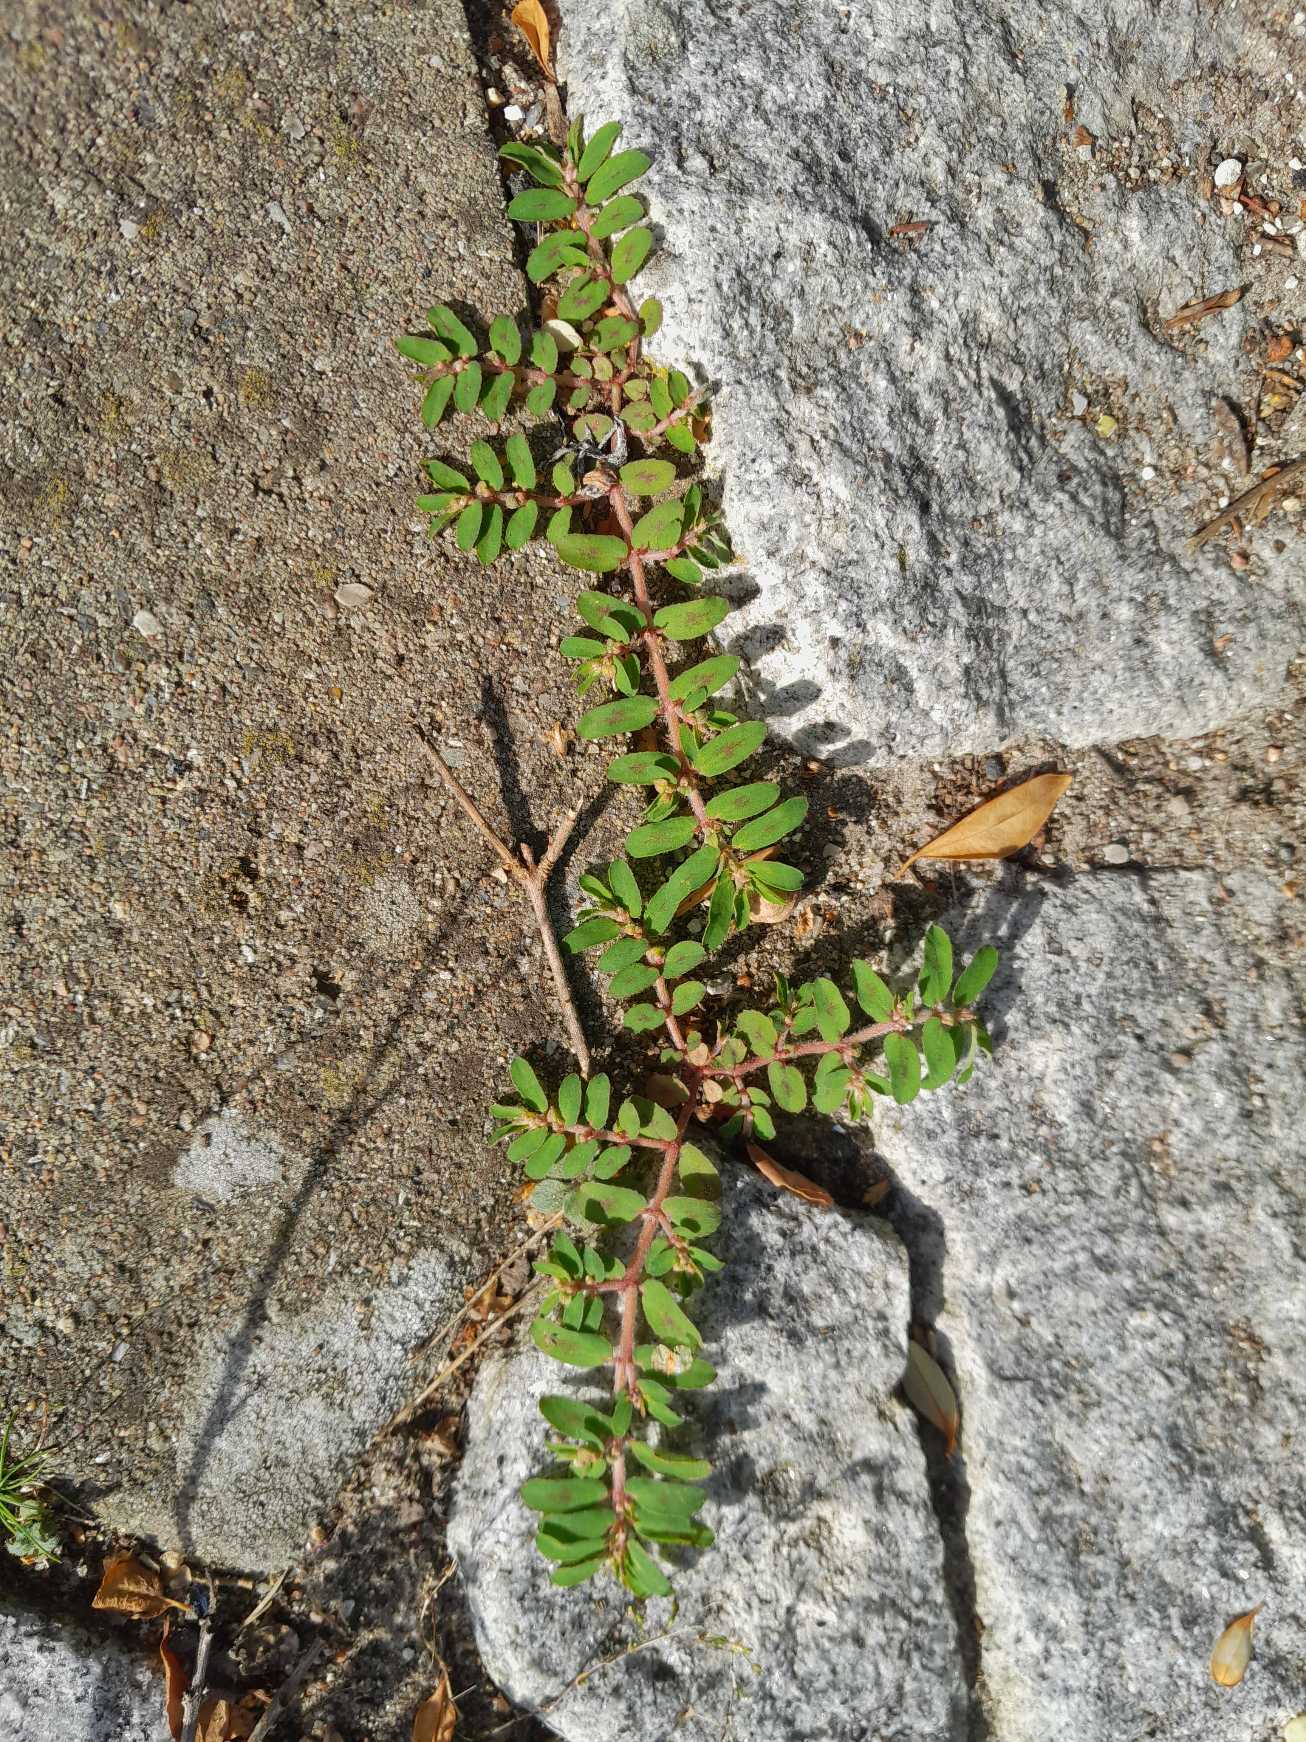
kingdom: Plantae
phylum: Tracheophyta
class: Magnoliopsida
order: Malpighiales
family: Euphorbiaceae
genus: Euphorbia
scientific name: Euphorbia maculata
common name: Plet-vortemælk
